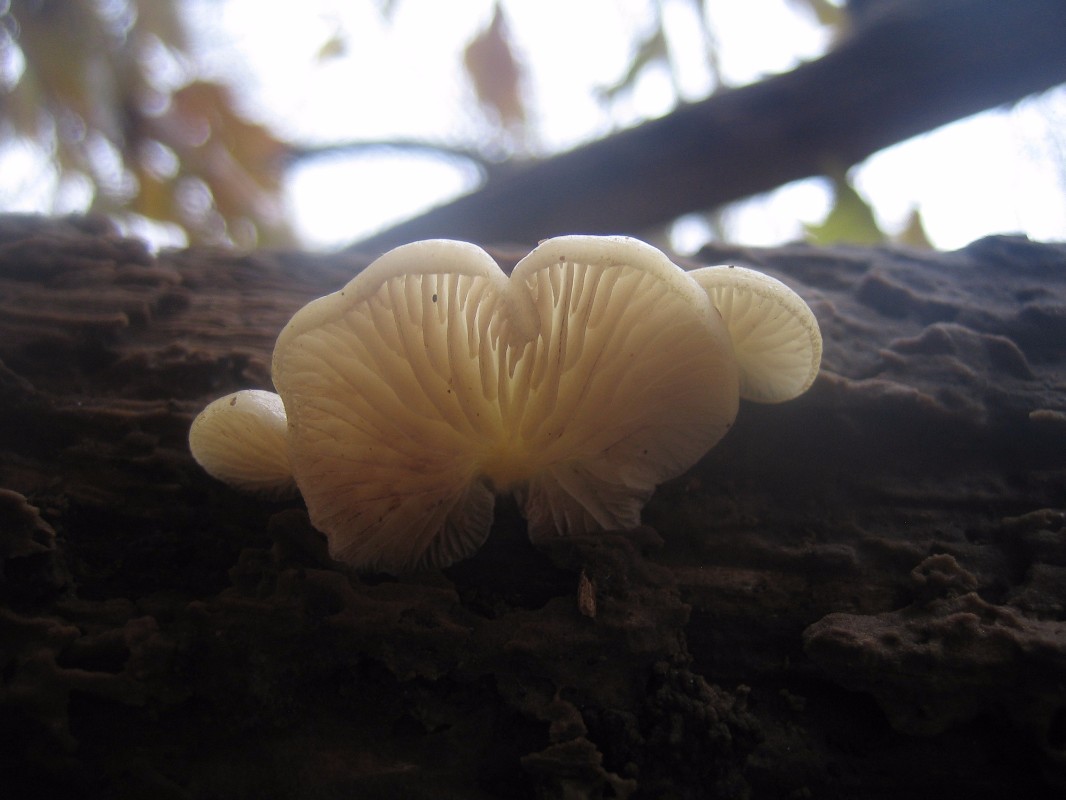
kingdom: Fungi
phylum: Basidiomycota
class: Agaricomycetes
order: Agaricales
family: Crepidotaceae
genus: Crepidotus
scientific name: Crepidotus mollis
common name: blød muslingesvamp
